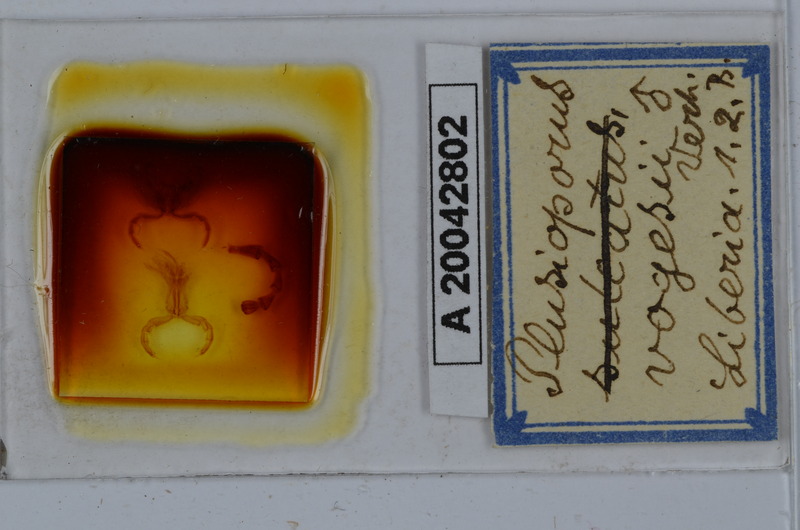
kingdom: Animalia
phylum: Arthropoda
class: Diplopoda
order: Spirostreptida
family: Spirostreptidae
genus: Telodeinopus
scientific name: Telodeinopus sulcatus
